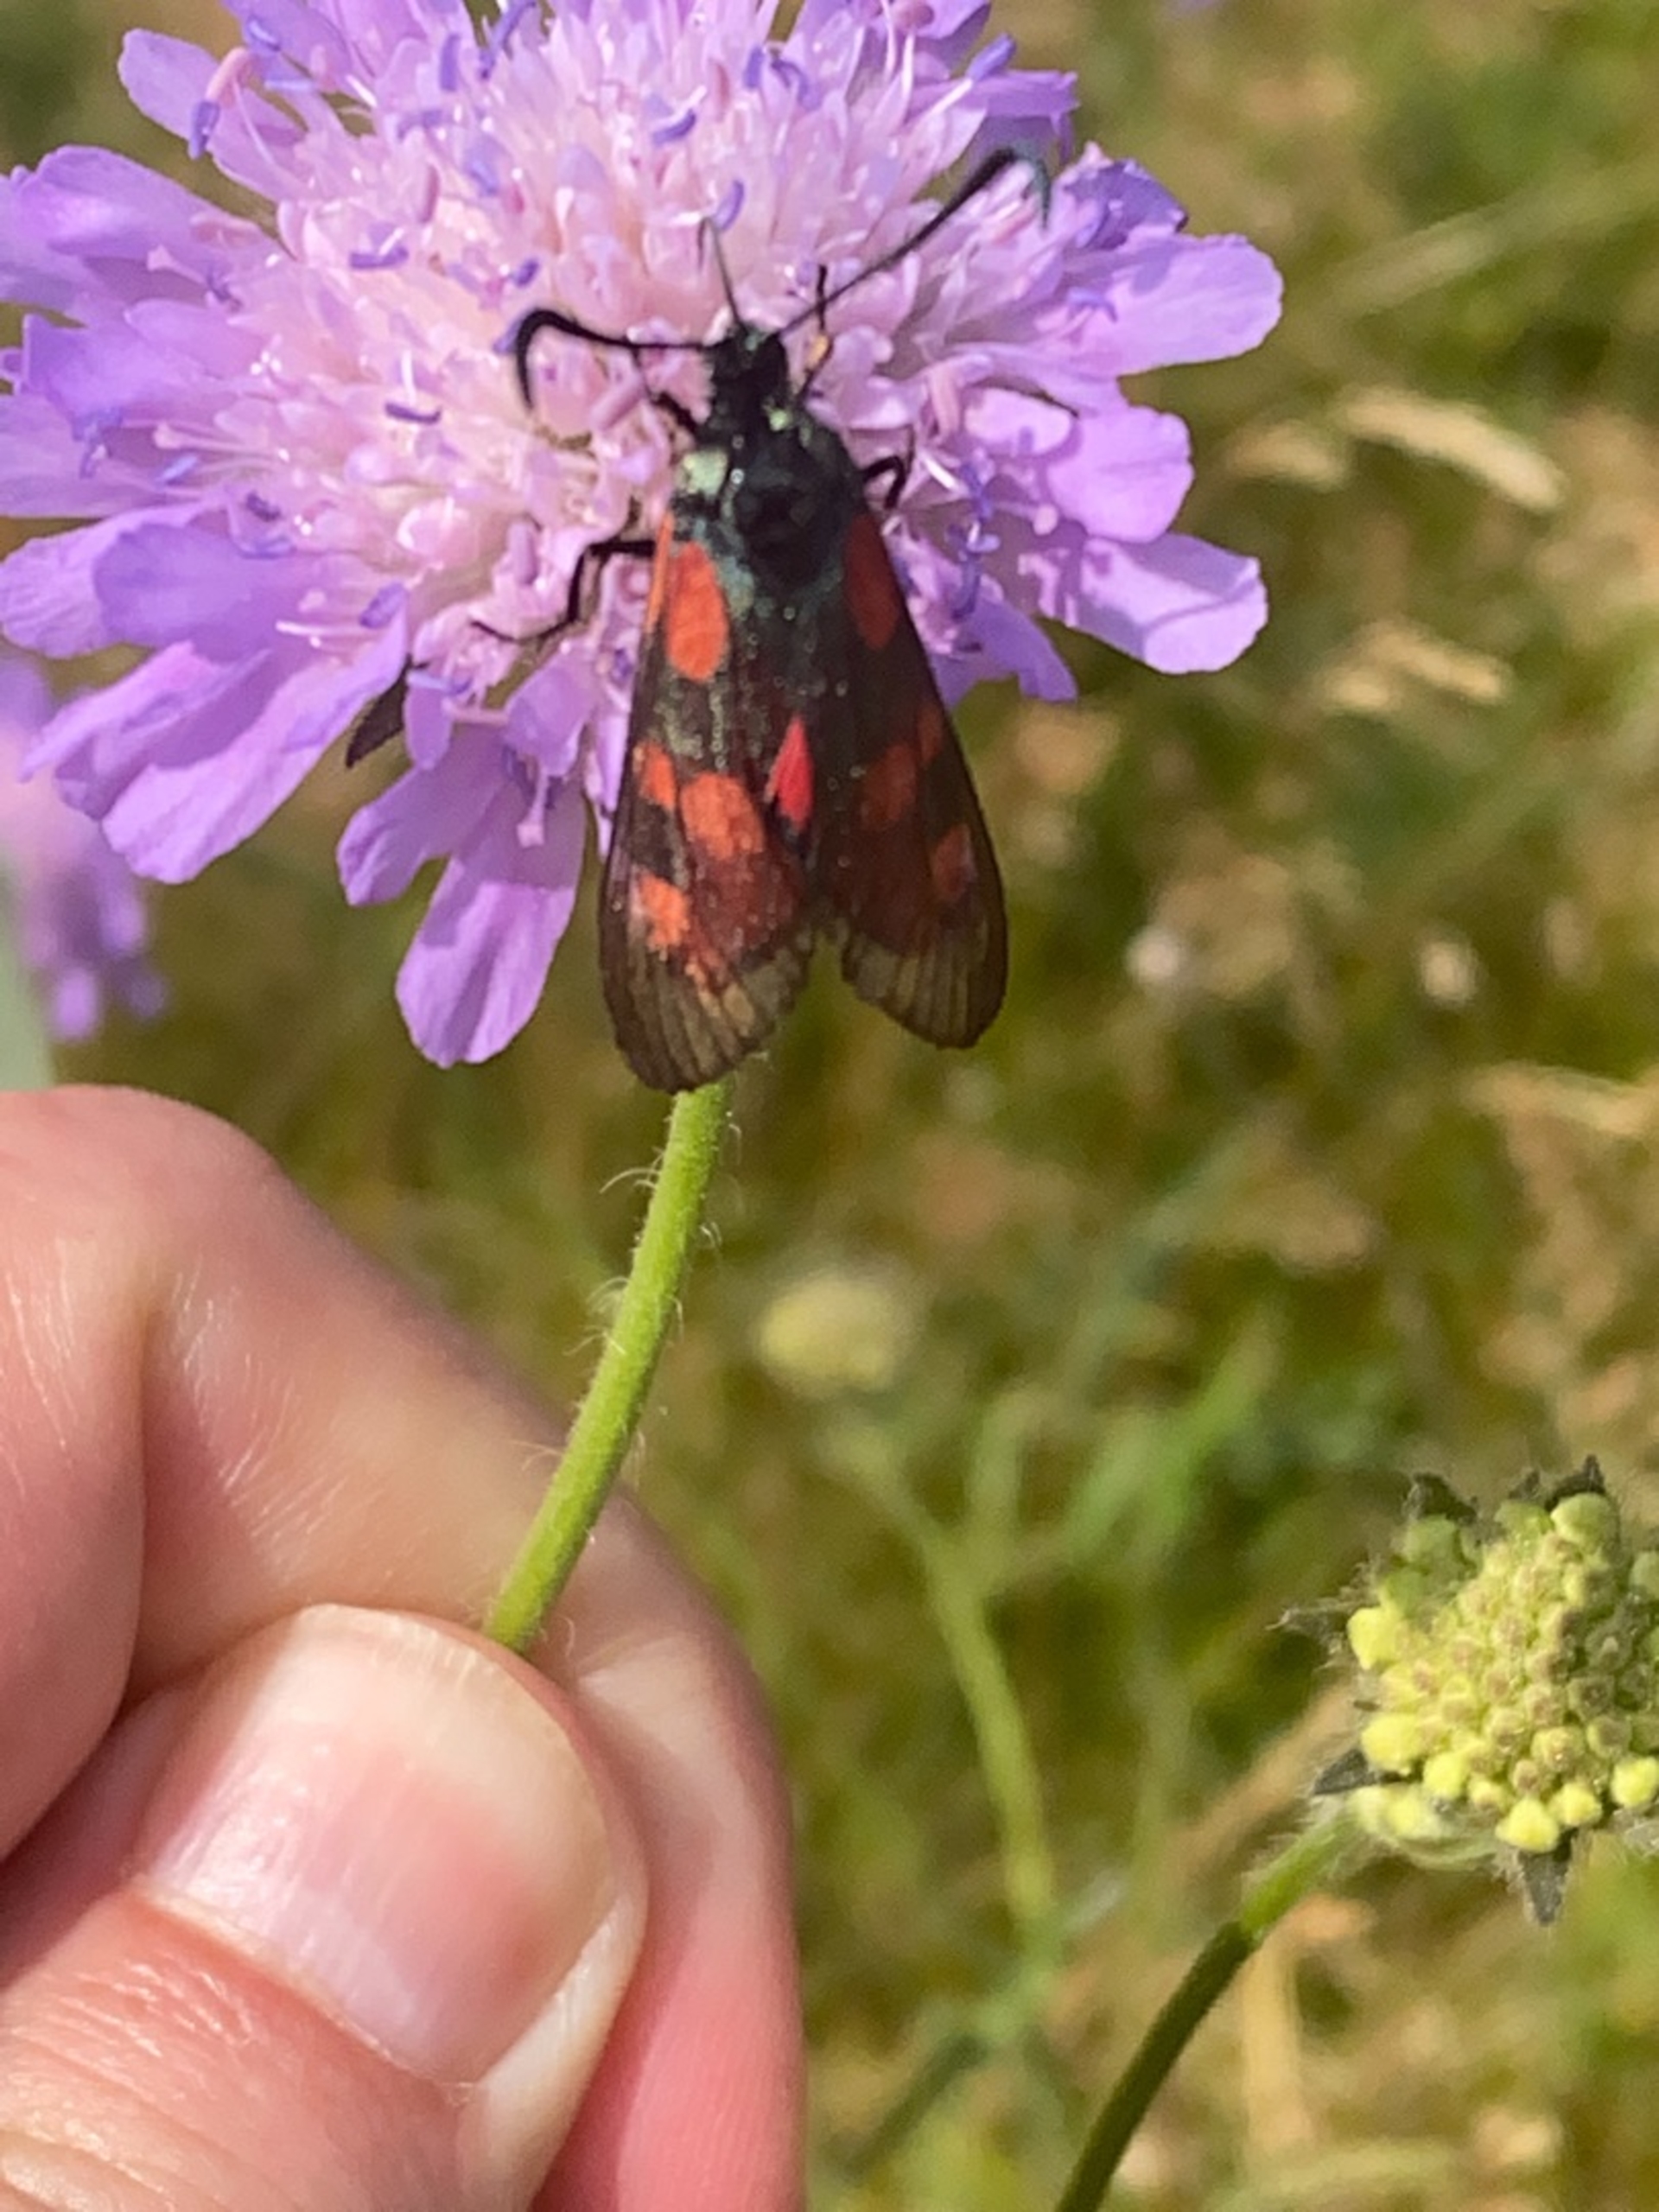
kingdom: Animalia
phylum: Arthropoda
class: Insecta
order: Lepidoptera
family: Zygaenidae
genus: Zygaena
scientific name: Zygaena lonicerae
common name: Femplettet køllesværmer
